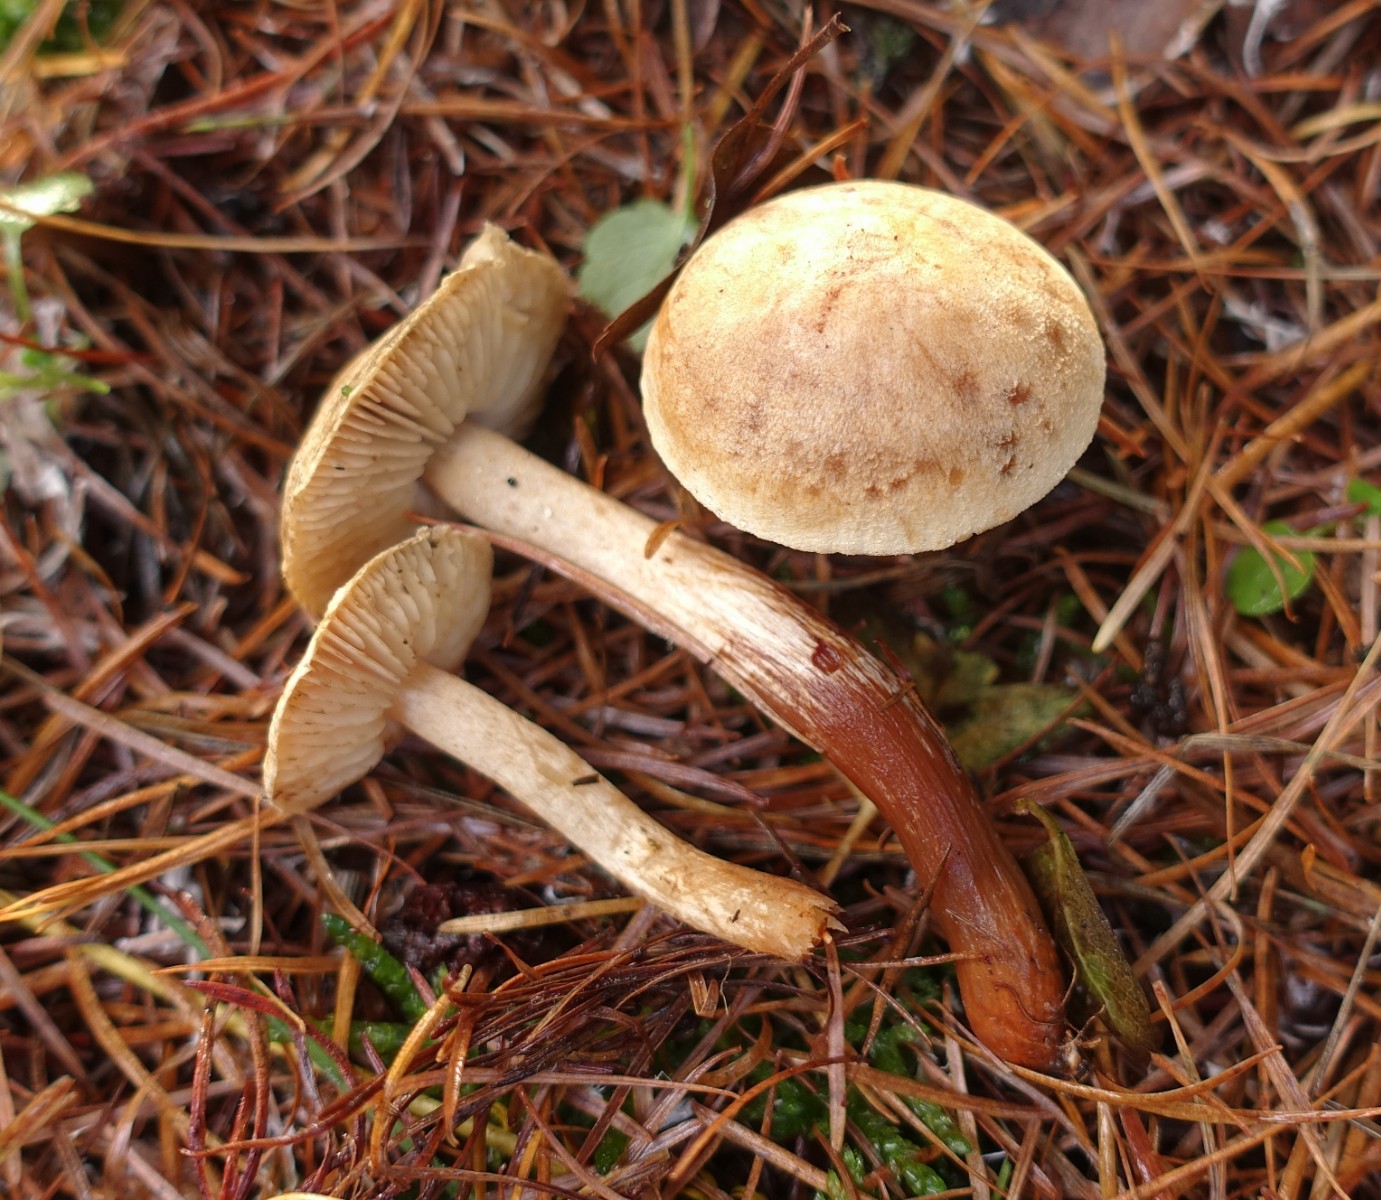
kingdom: Fungi
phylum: Basidiomycota
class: Agaricomycetes
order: Agaricales
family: Tricholomataceae
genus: Tricholoma
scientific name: Tricholoma psammopus
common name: grynstokket ridderhat
